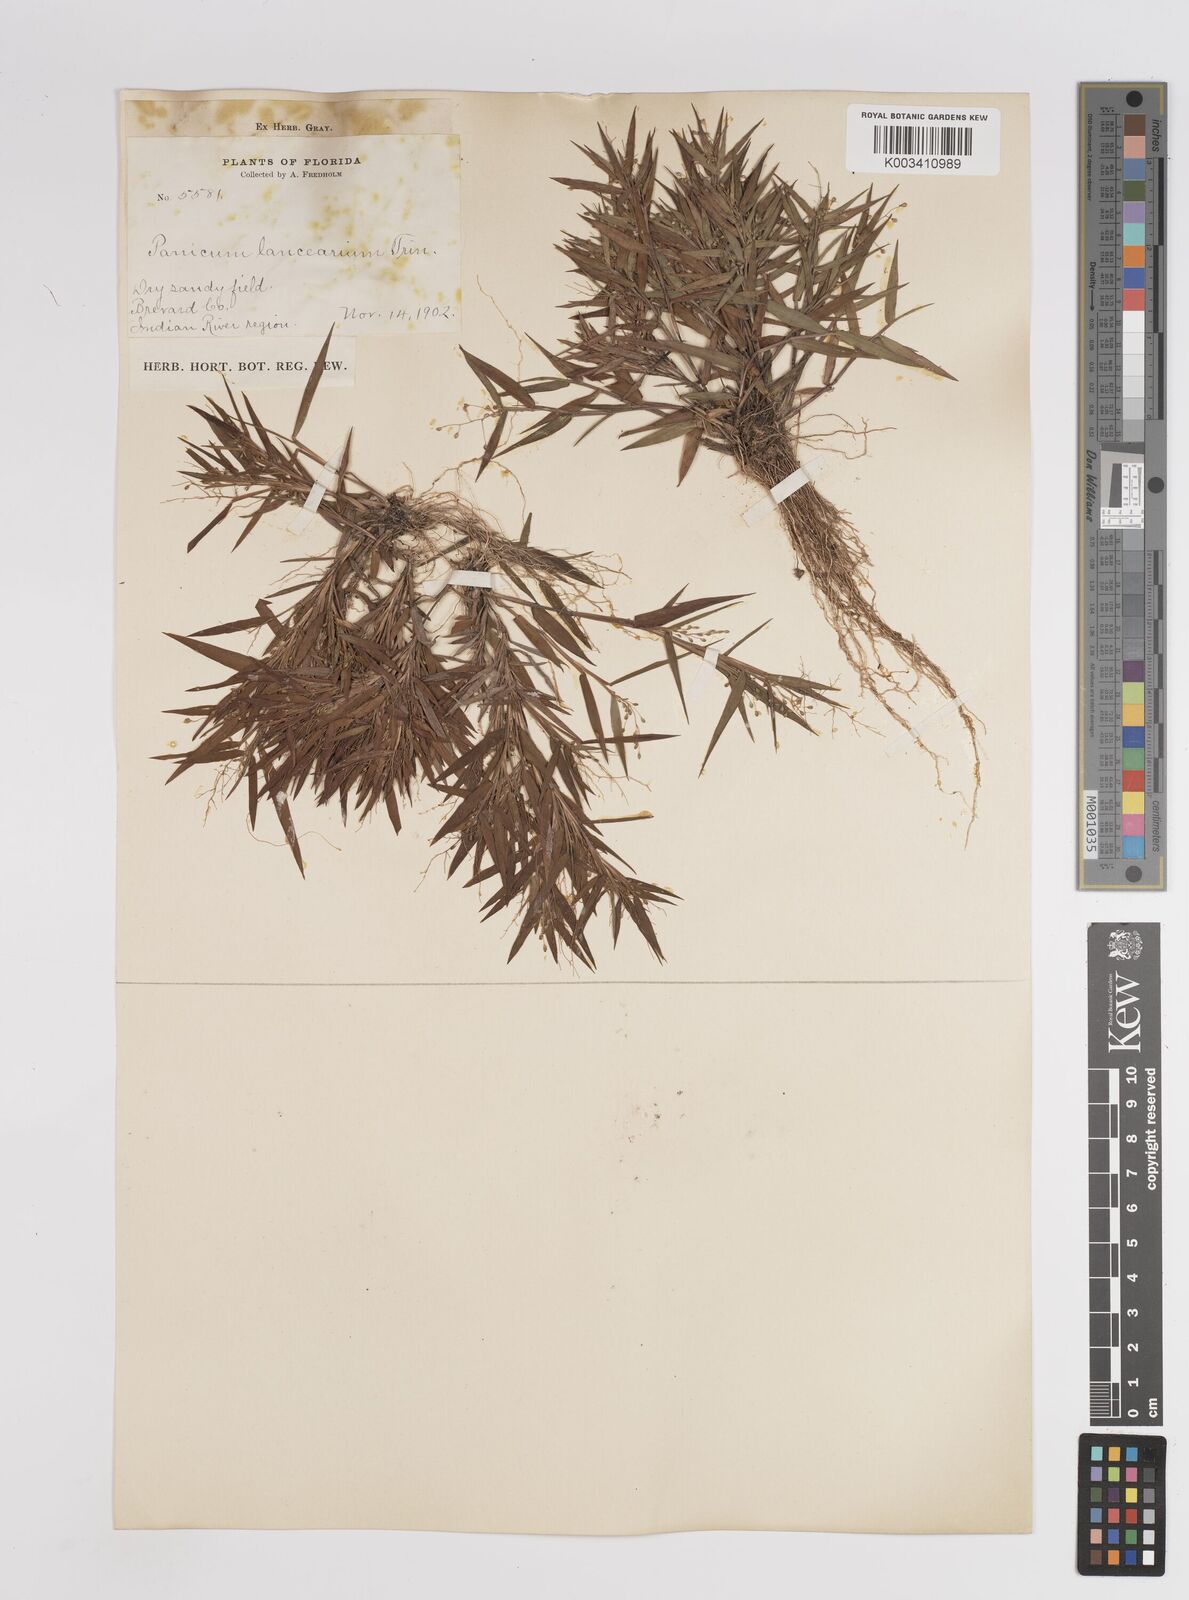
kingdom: Plantae
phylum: Tracheophyta
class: Liliopsida
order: Poales
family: Poaceae
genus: Dichanthelium
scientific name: Dichanthelium portoricense
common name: American panicgrass
